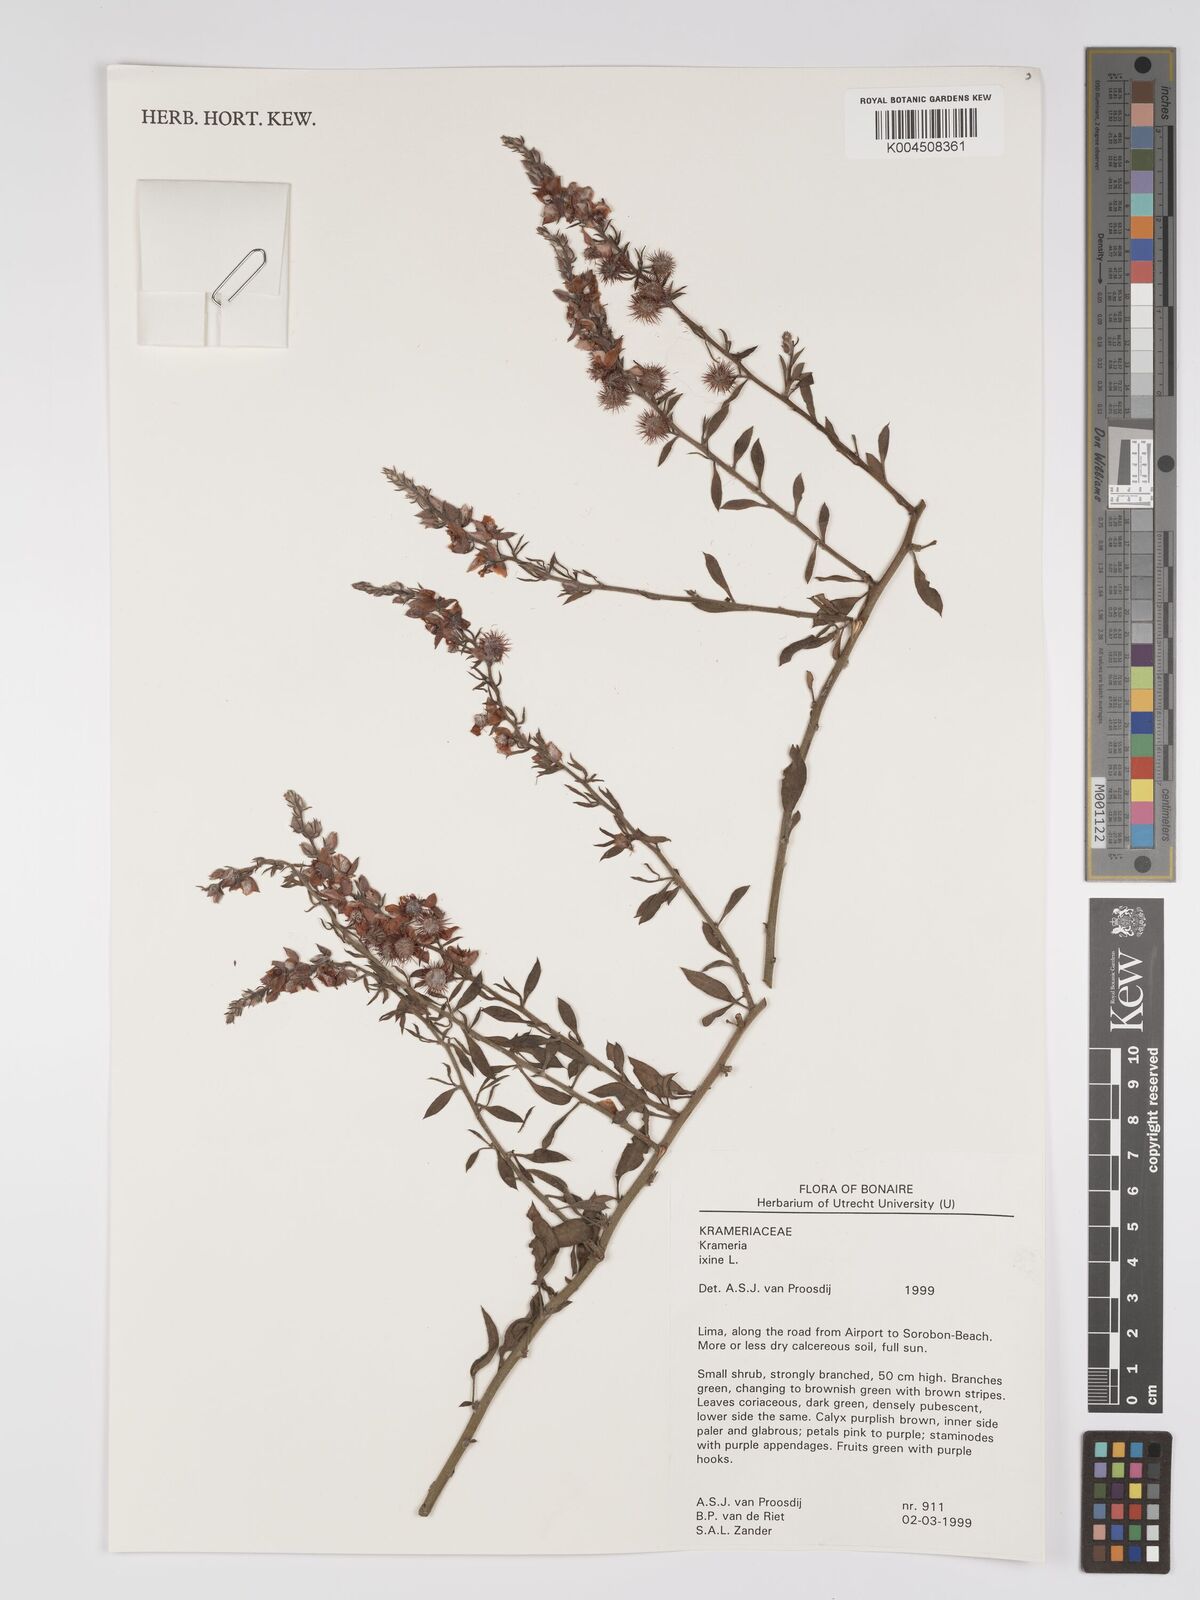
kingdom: Plantae
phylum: Tracheophyta
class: Magnoliopsida
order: Zygophyllales
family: Krameriaceae
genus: Krameria
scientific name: Krameria ixine
